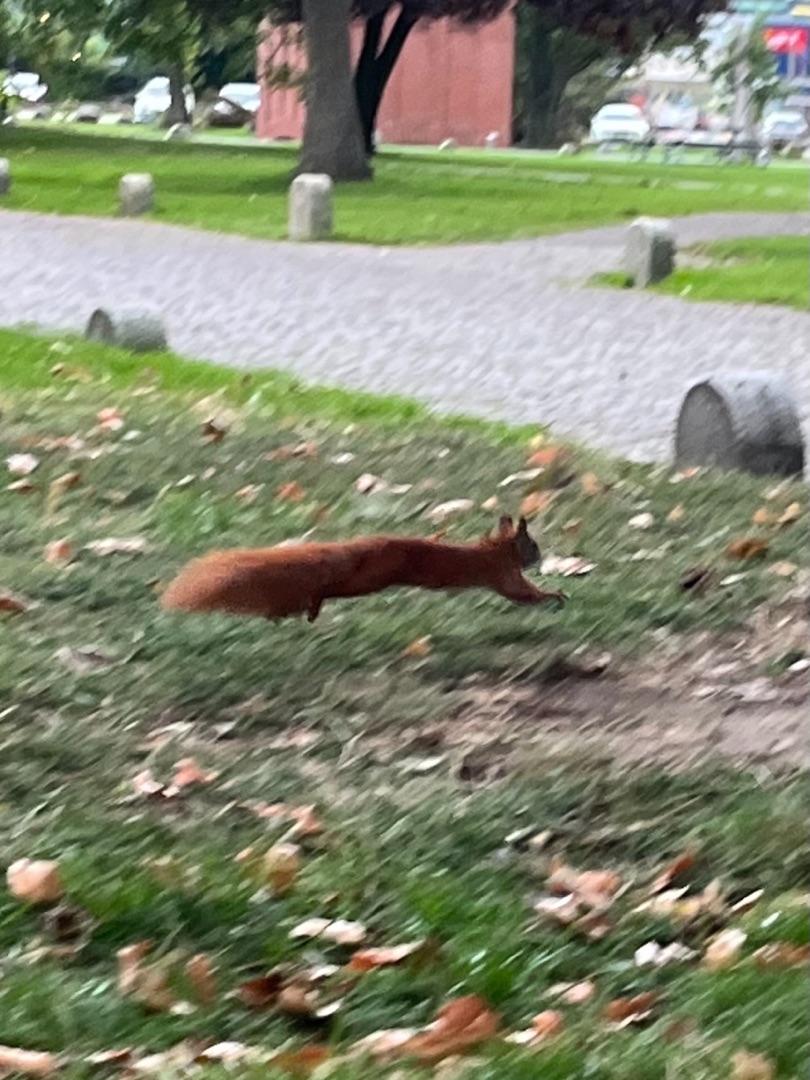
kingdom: Animalia
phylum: Chordata
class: Mammalia
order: Rodentia
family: Sciuridae
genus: Sciurus
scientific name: Sciurus vulgaris
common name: Egern
